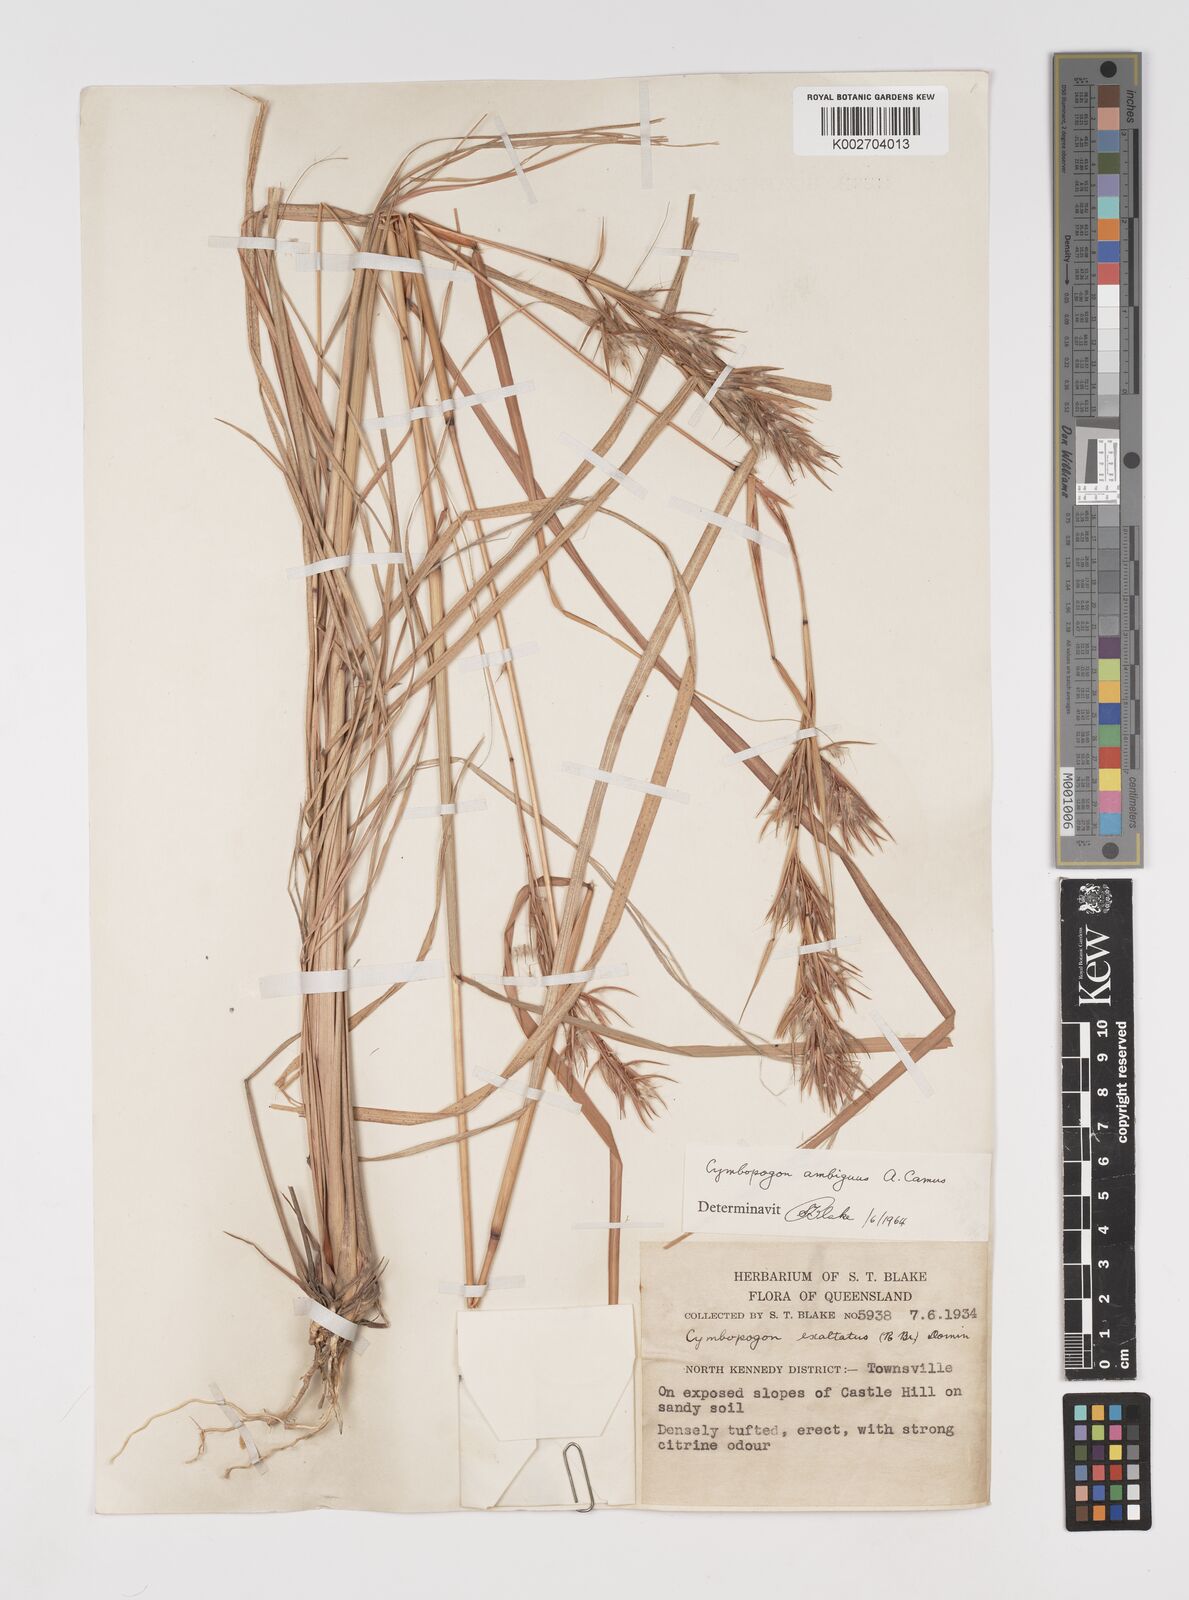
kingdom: Plantae
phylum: Tracheophyta
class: Liliopsida
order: Poales
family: Poaceae
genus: Cymbopogon
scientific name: Cymbopogon ambiguus
